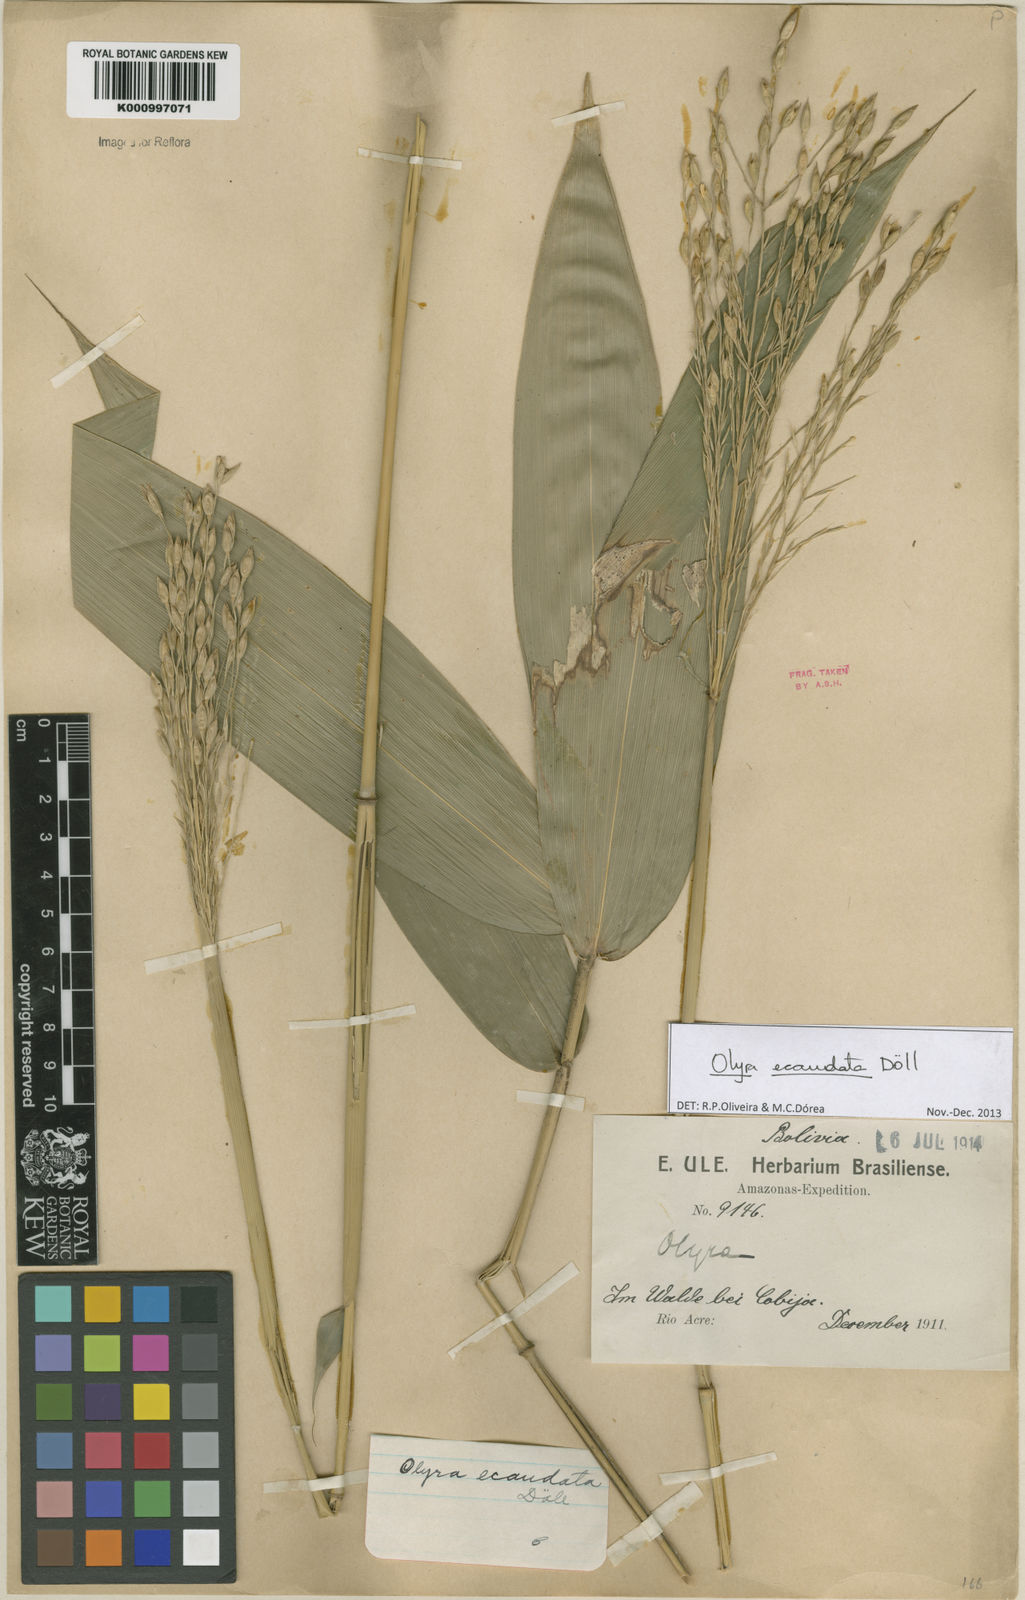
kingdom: Plantae
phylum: Tracheophyta
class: Liliopsida
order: Poales
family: Poaceae
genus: Olyra
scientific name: Olyra
